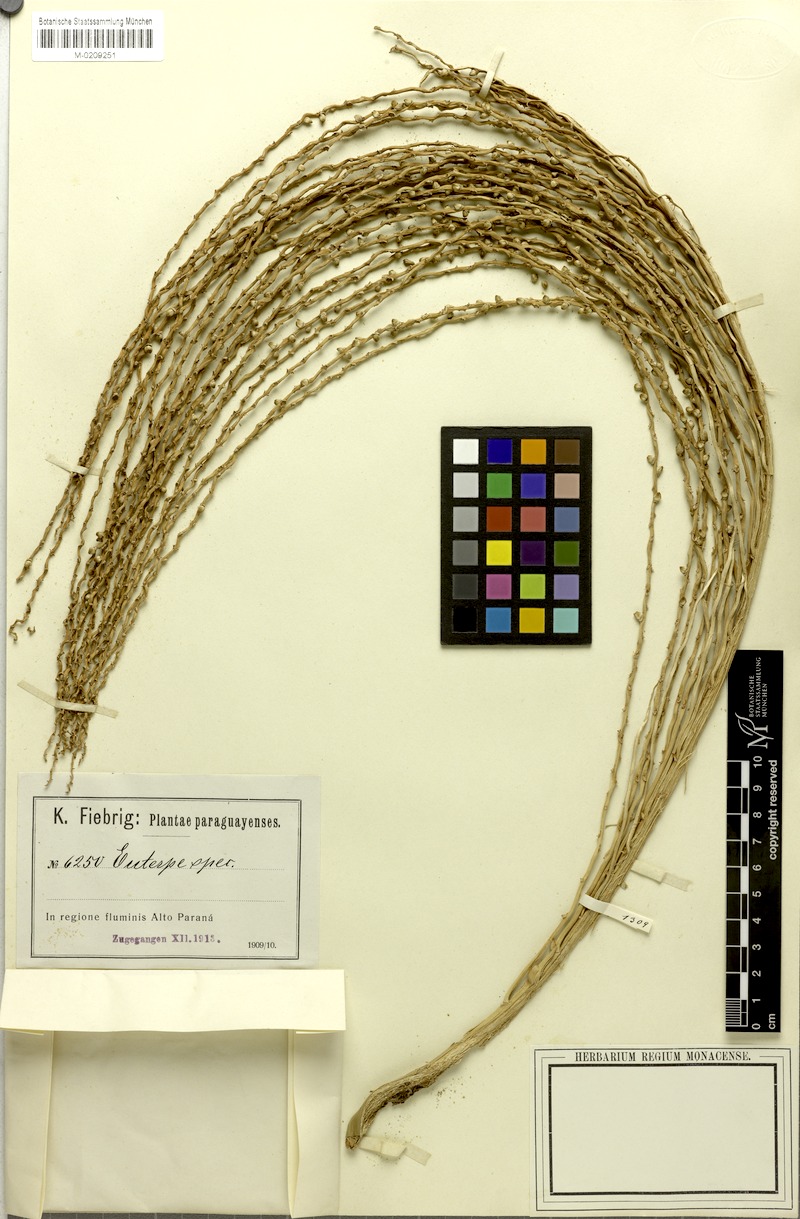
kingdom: Plantae
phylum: Tracheophyta
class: Liliopsida
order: Arecales
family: Arecaceae
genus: Euterpe
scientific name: Euterpe
